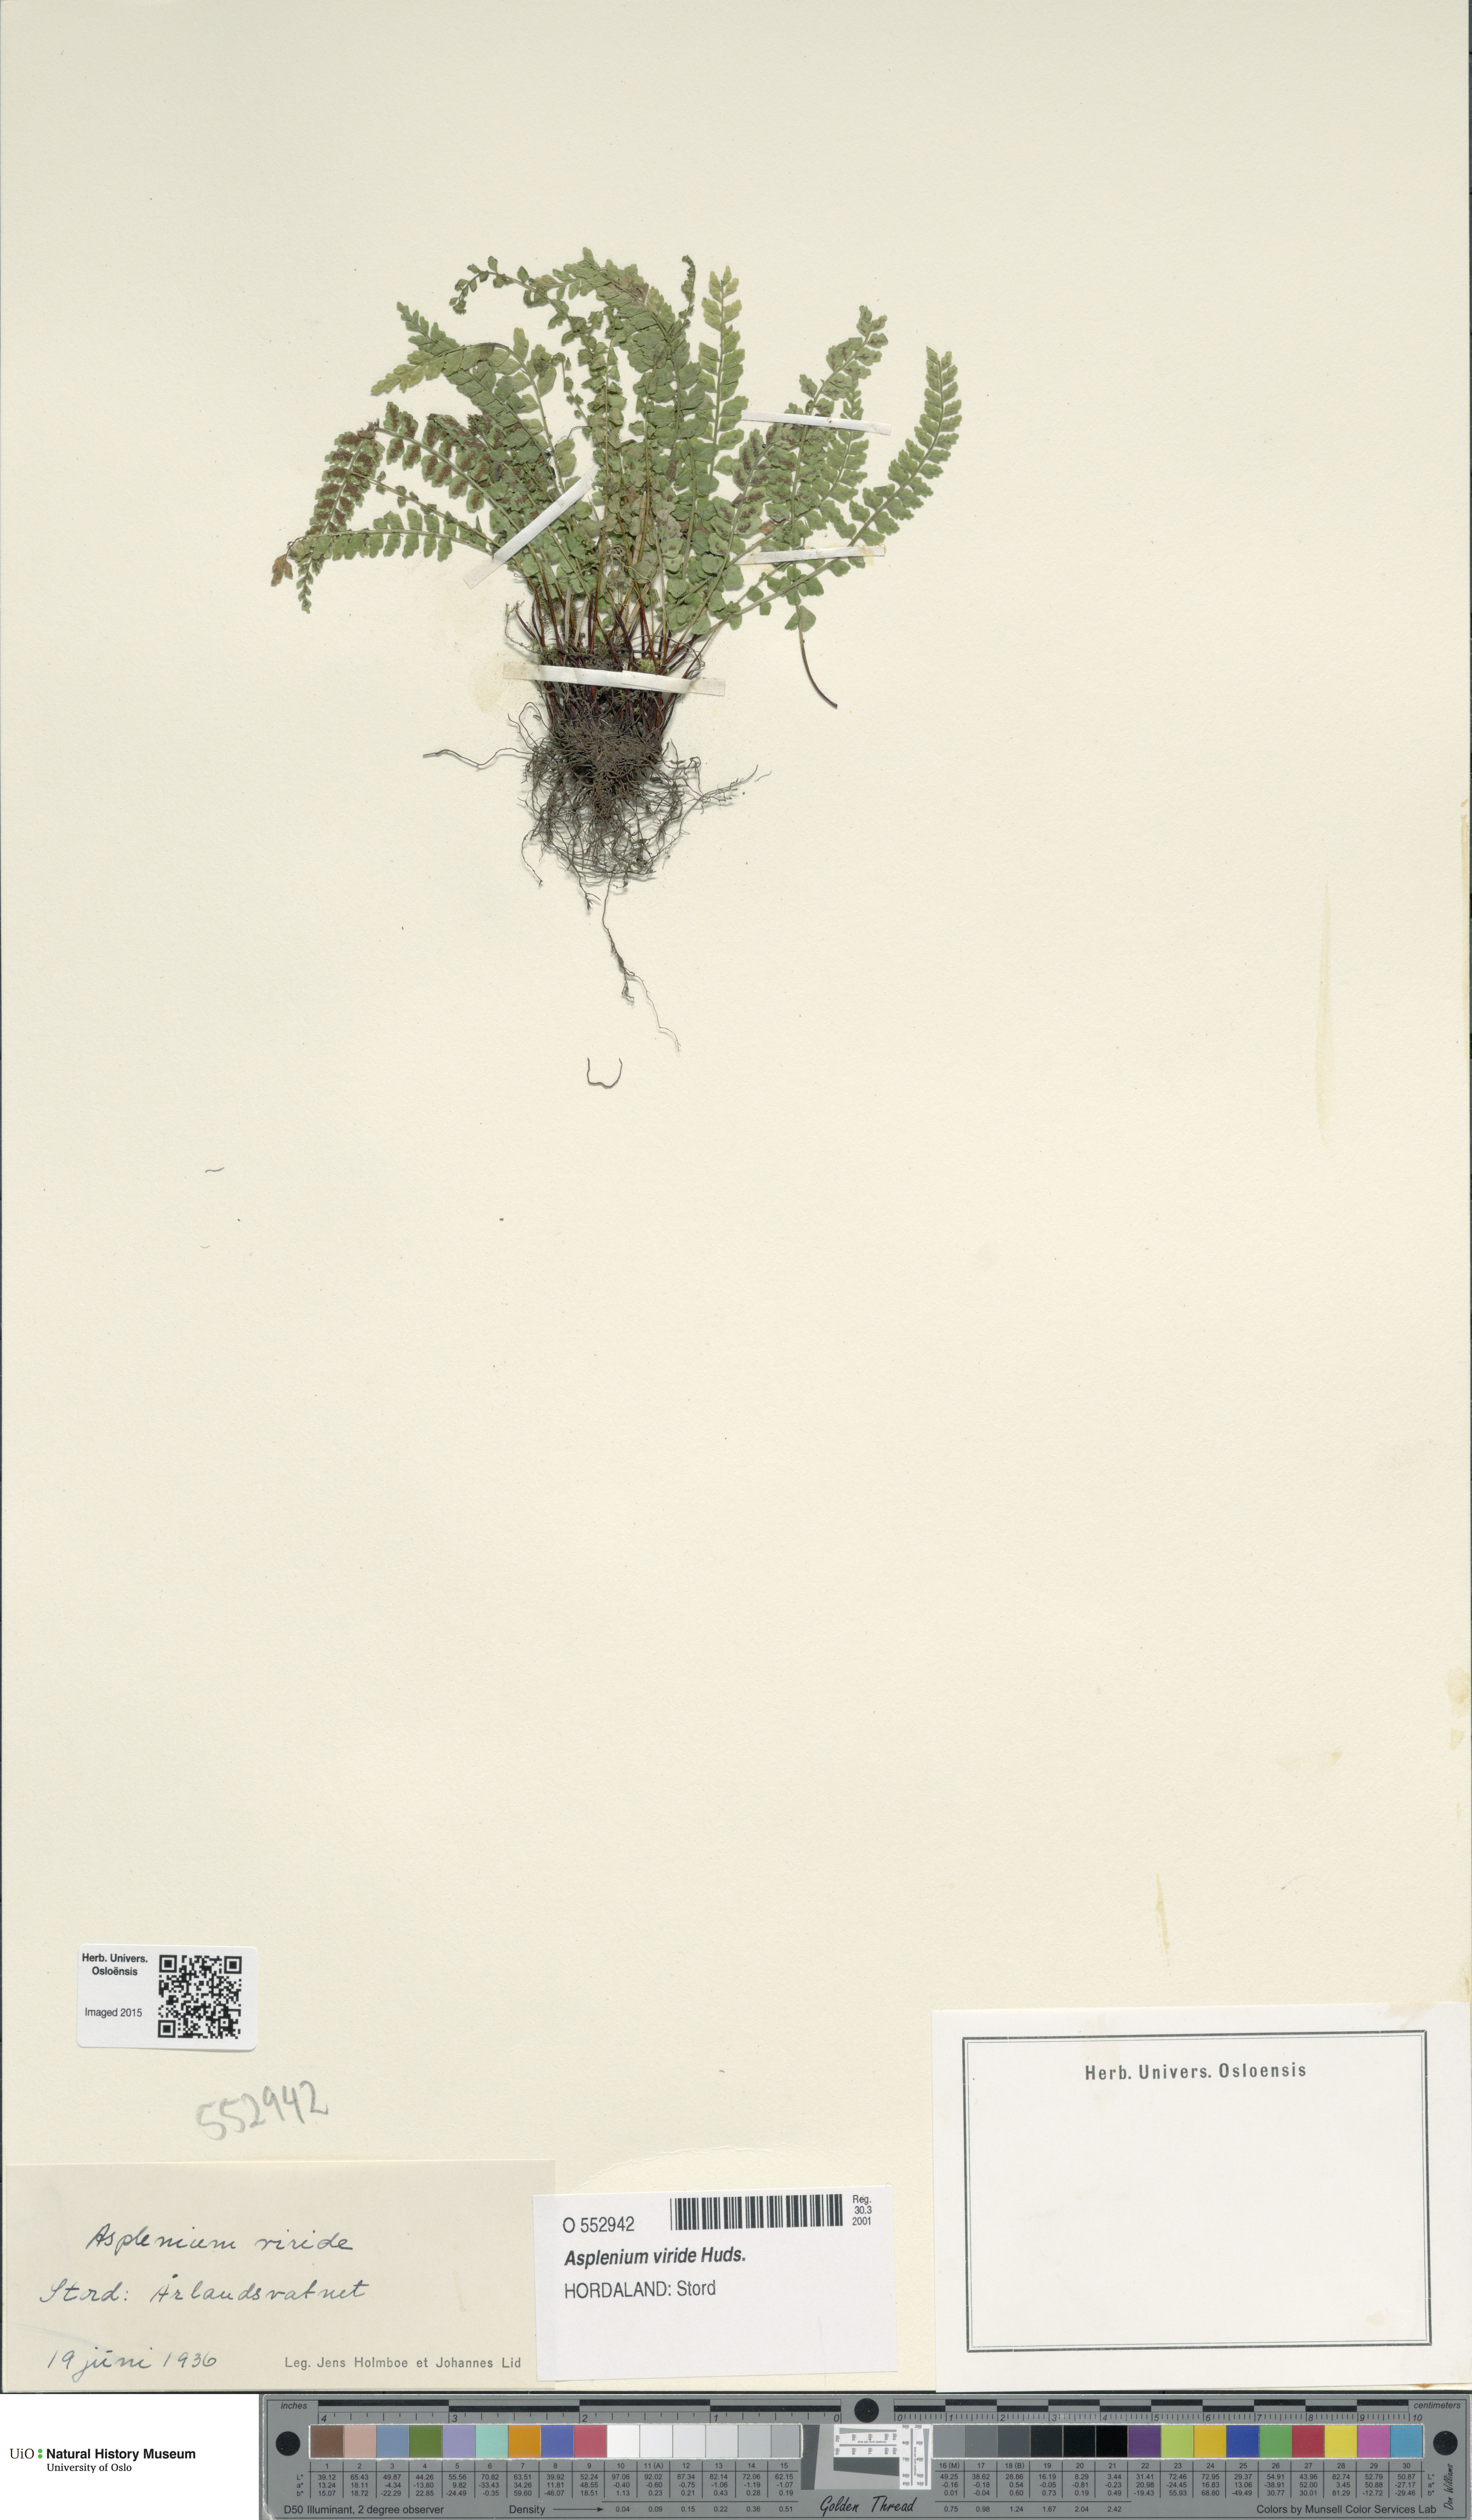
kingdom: Plantae
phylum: Tracheophyta
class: Polypodiopsida
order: Polypodiales
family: Aspleniaceae
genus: Asplenium
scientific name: Asplenium viride
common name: Green spleenwort
